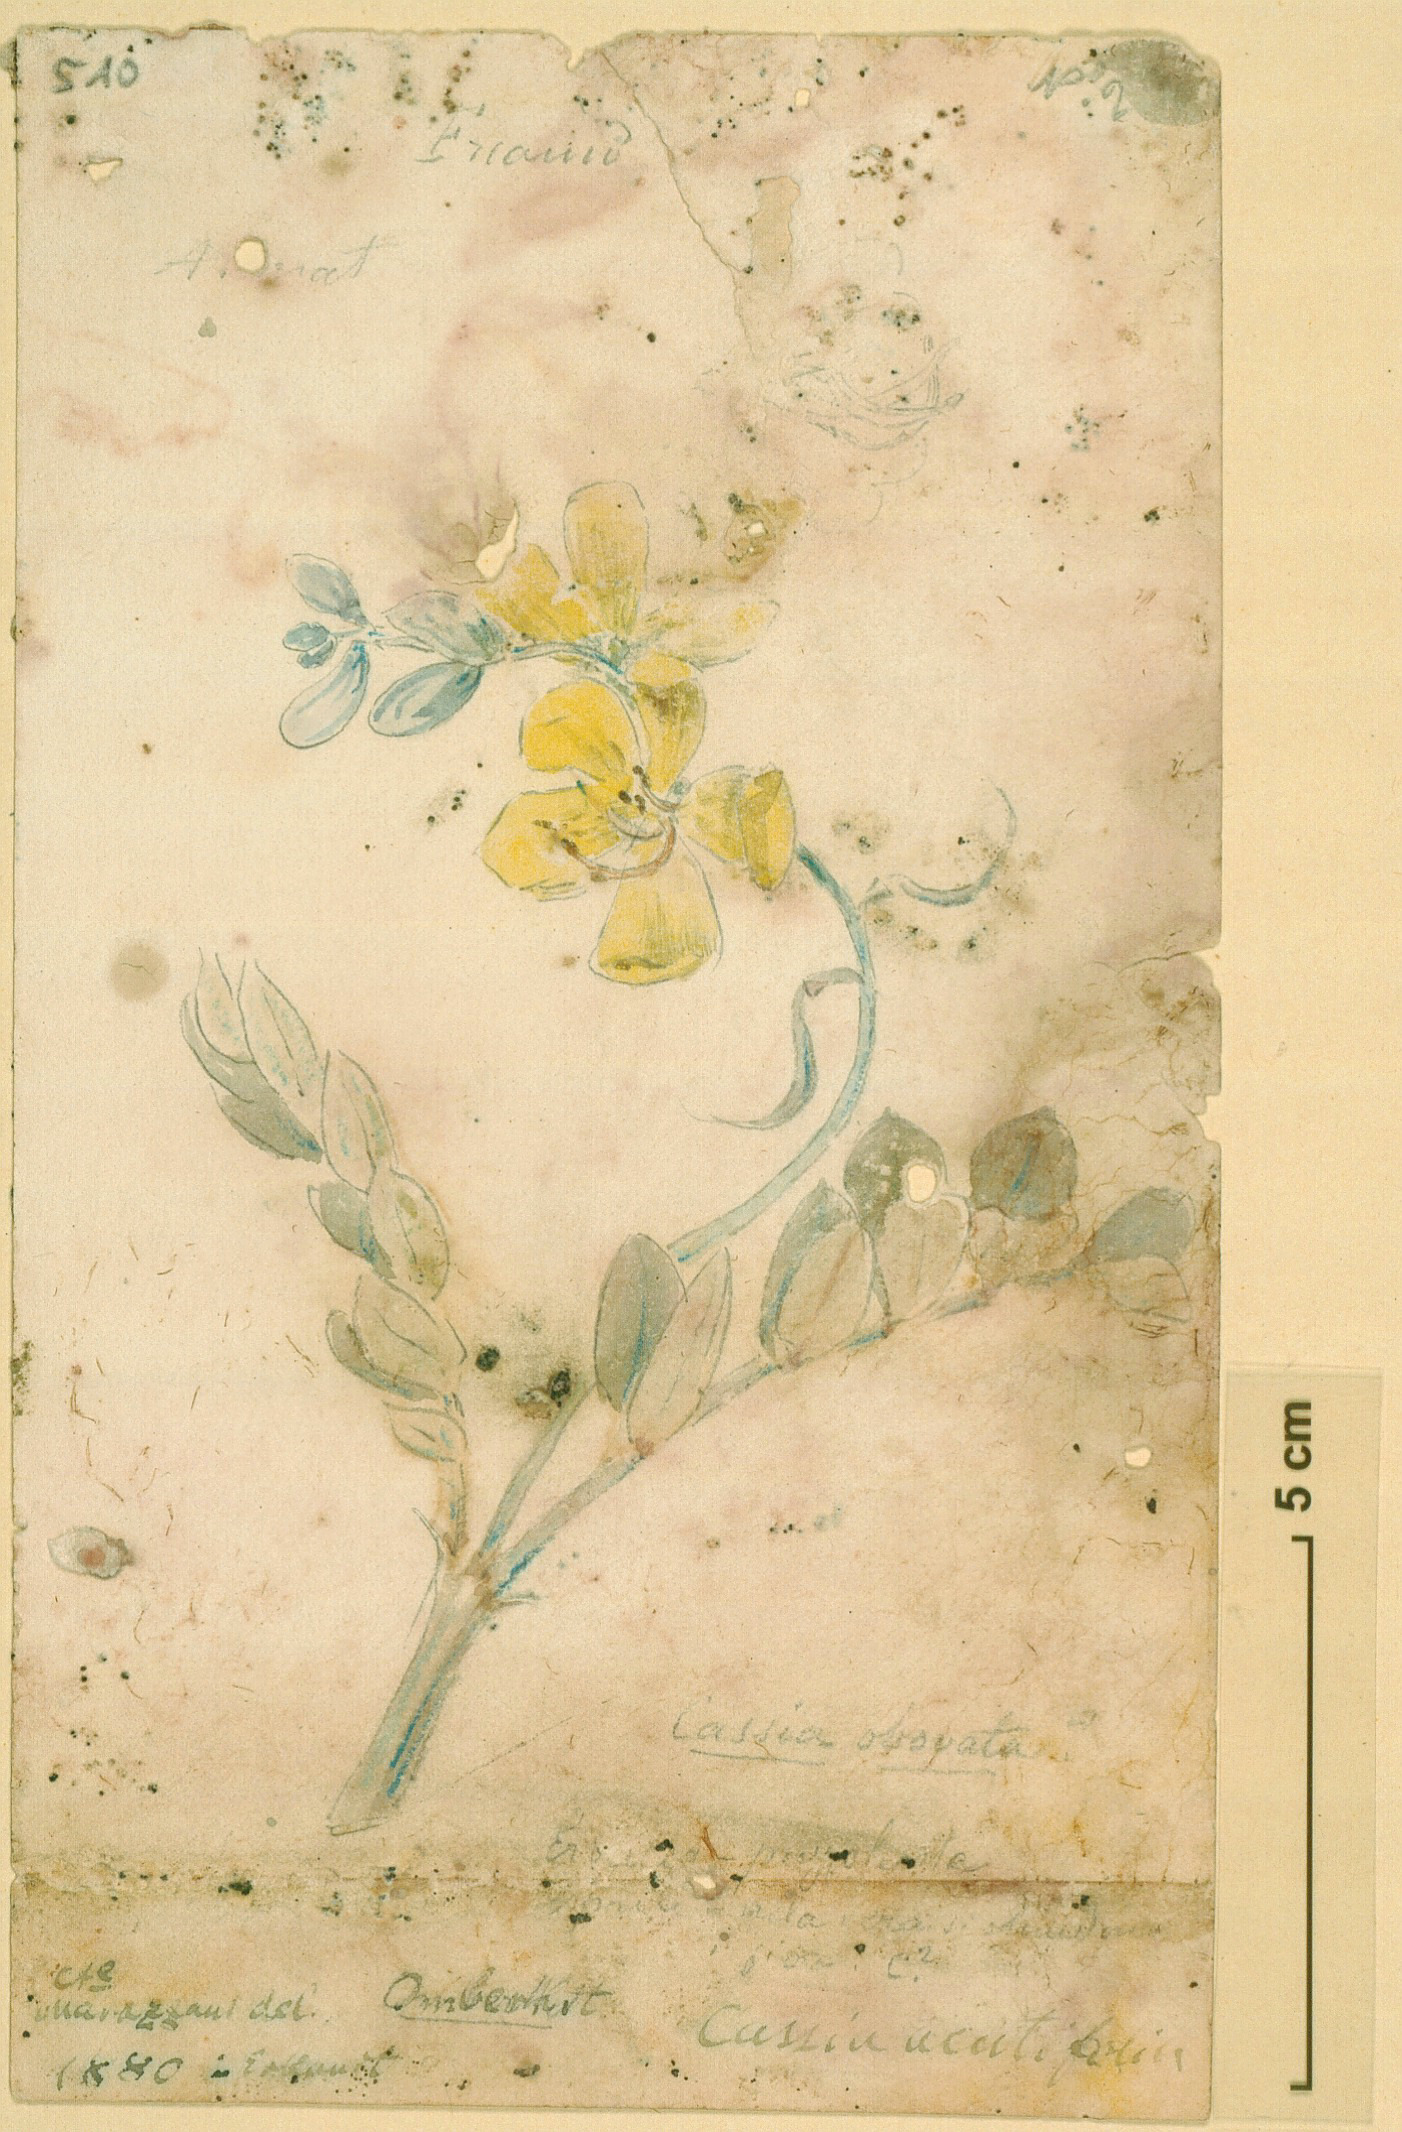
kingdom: Plantae
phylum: Tracheophyta
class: Magnoliopsida
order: Fabales
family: Fabaceae
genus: Senna
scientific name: Senna italica
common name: Port royal senna
